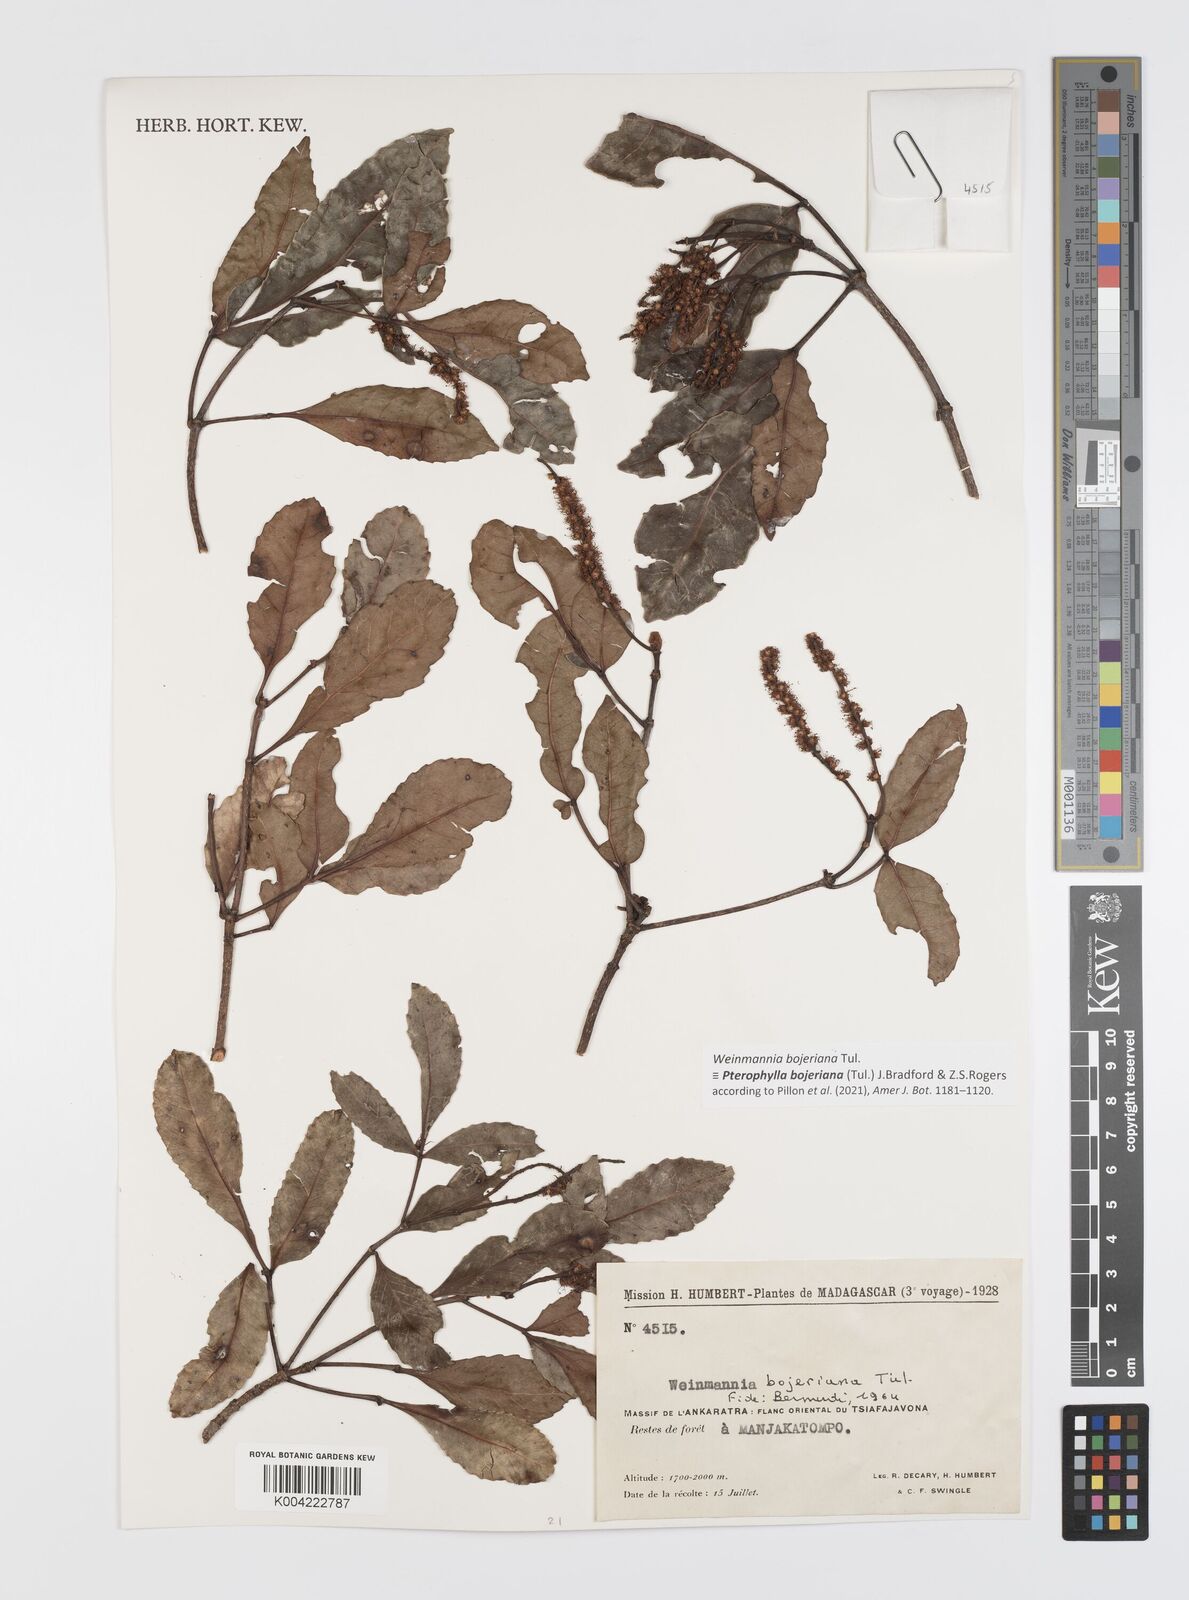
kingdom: Plantae
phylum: Tracheophyta
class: Magnoliopsida
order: Oxalidales
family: Cunoniaceae
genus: Pterophylla
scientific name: Pterophylla
